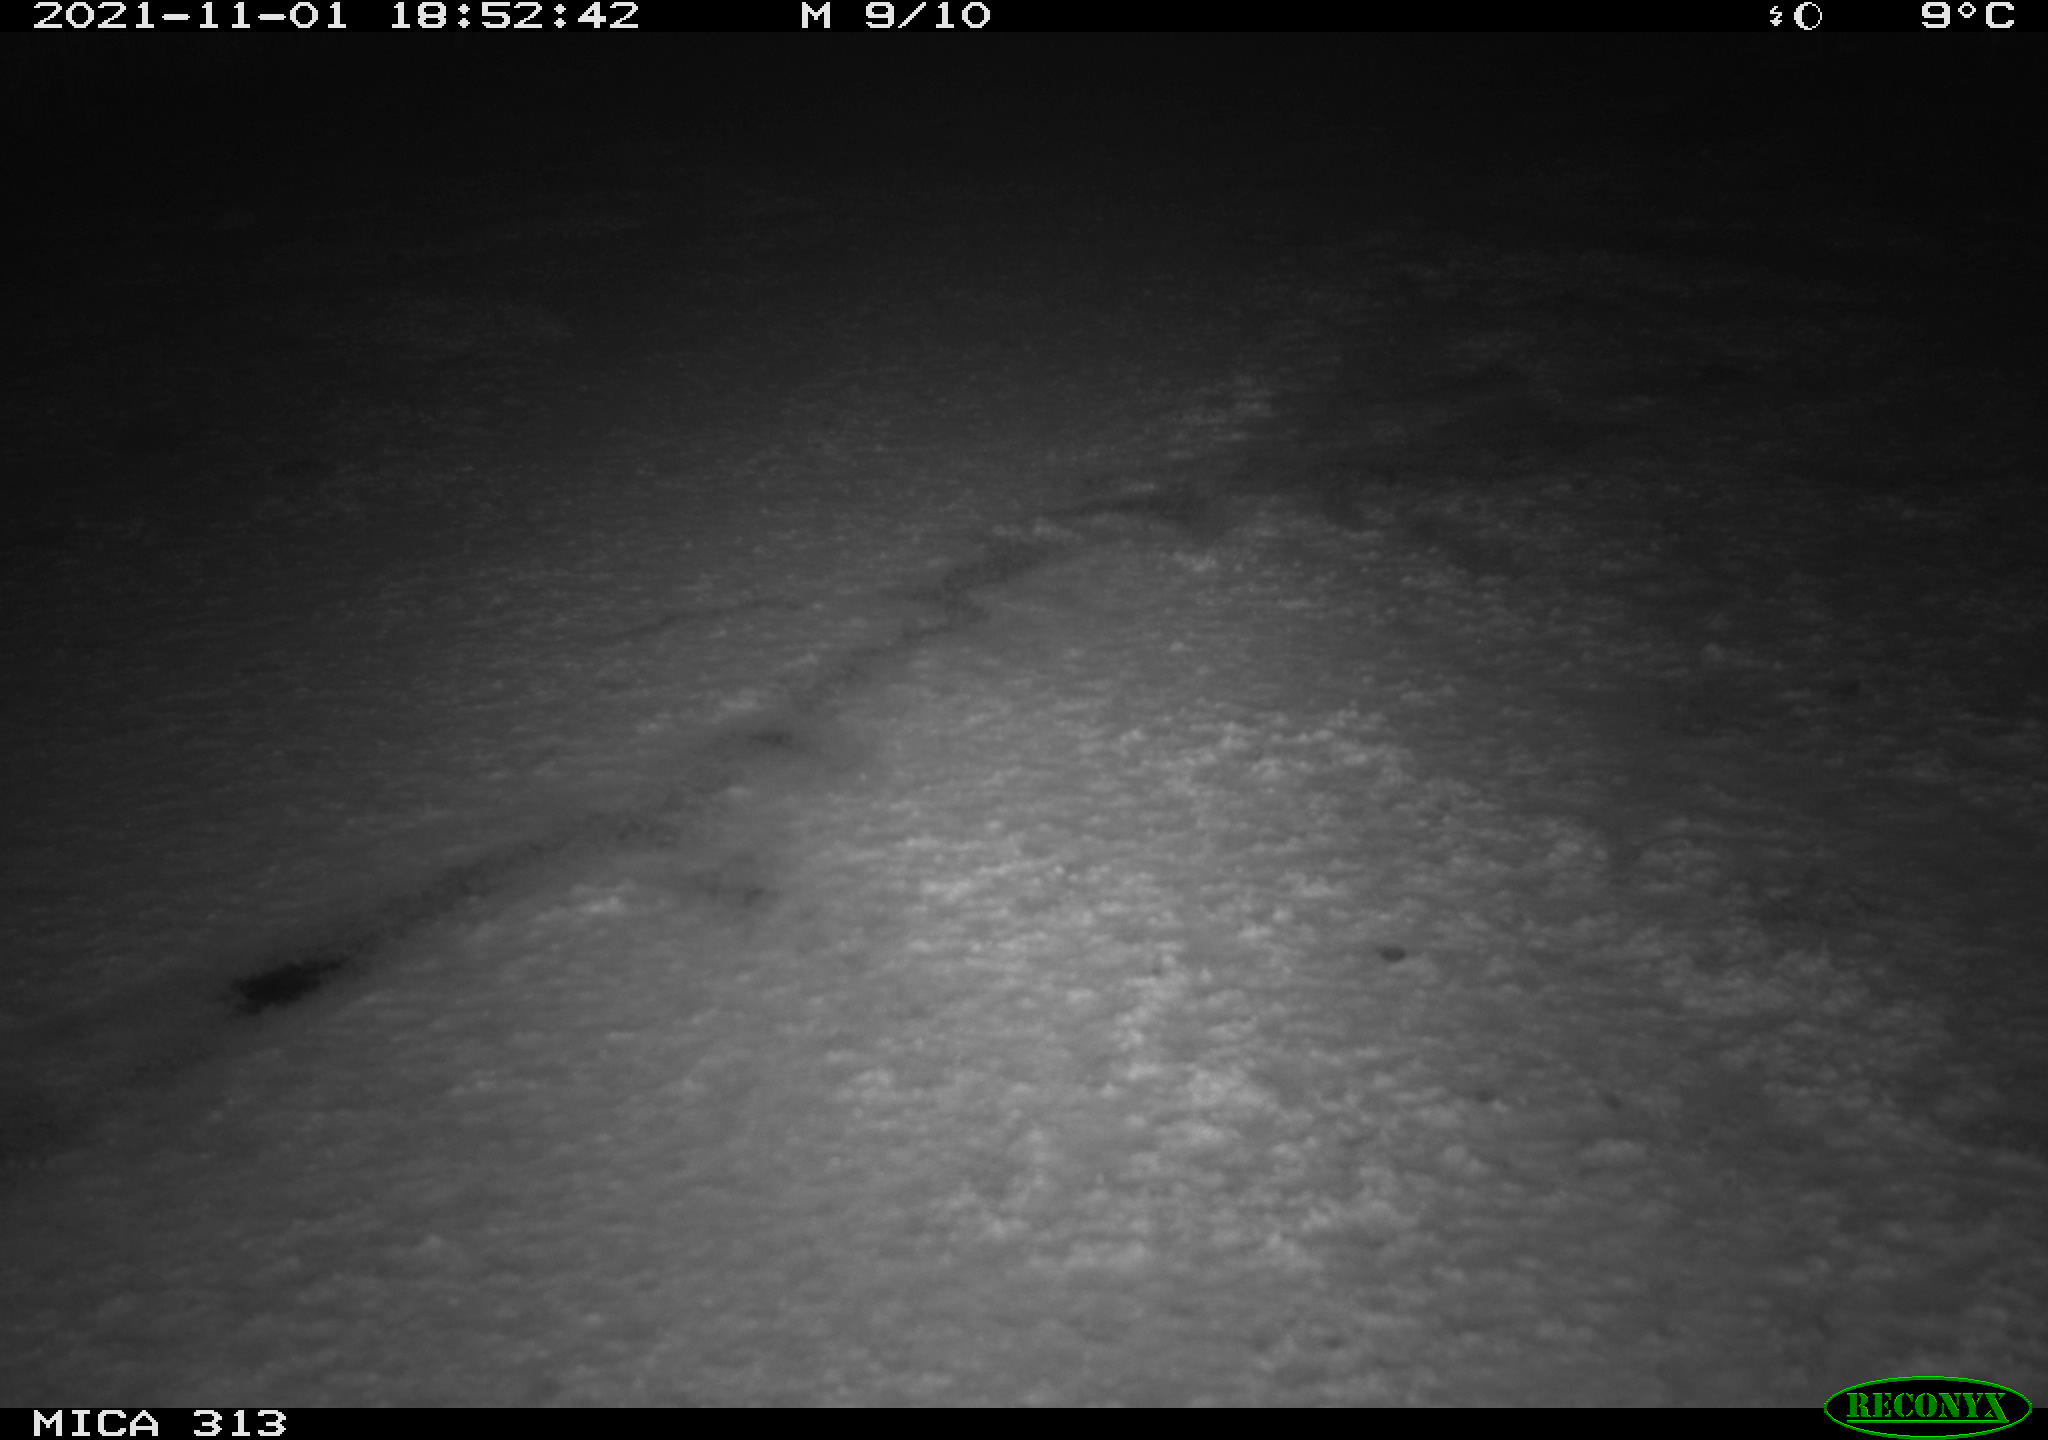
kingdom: Animalia
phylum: Chordata
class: Aves
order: Gruiformes
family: Rallidae
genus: Gallinula
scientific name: Gallinula chloropus
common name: Common moorhen
